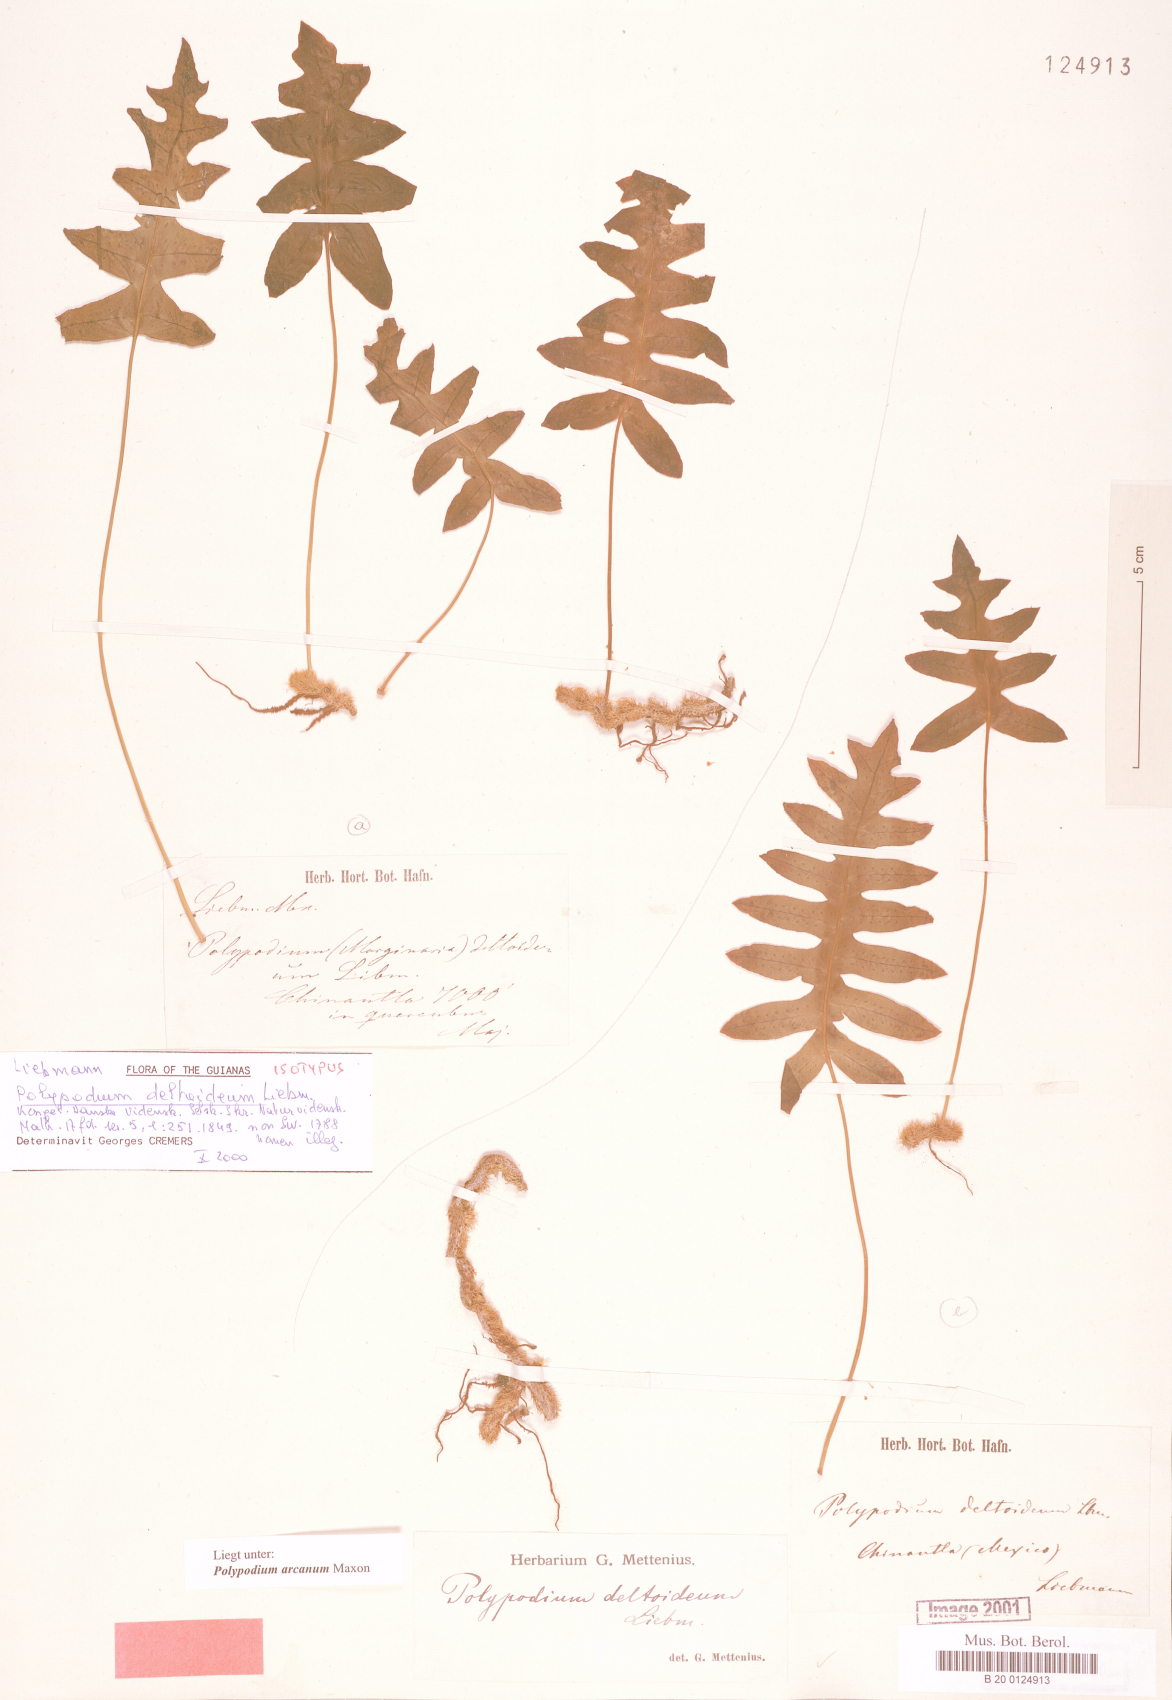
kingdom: Plantae
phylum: Tracheophyta
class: Polypodiopsida
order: Polypodiales
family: Polypodiaceae
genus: Polypodium
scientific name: Polypodium arcanum
